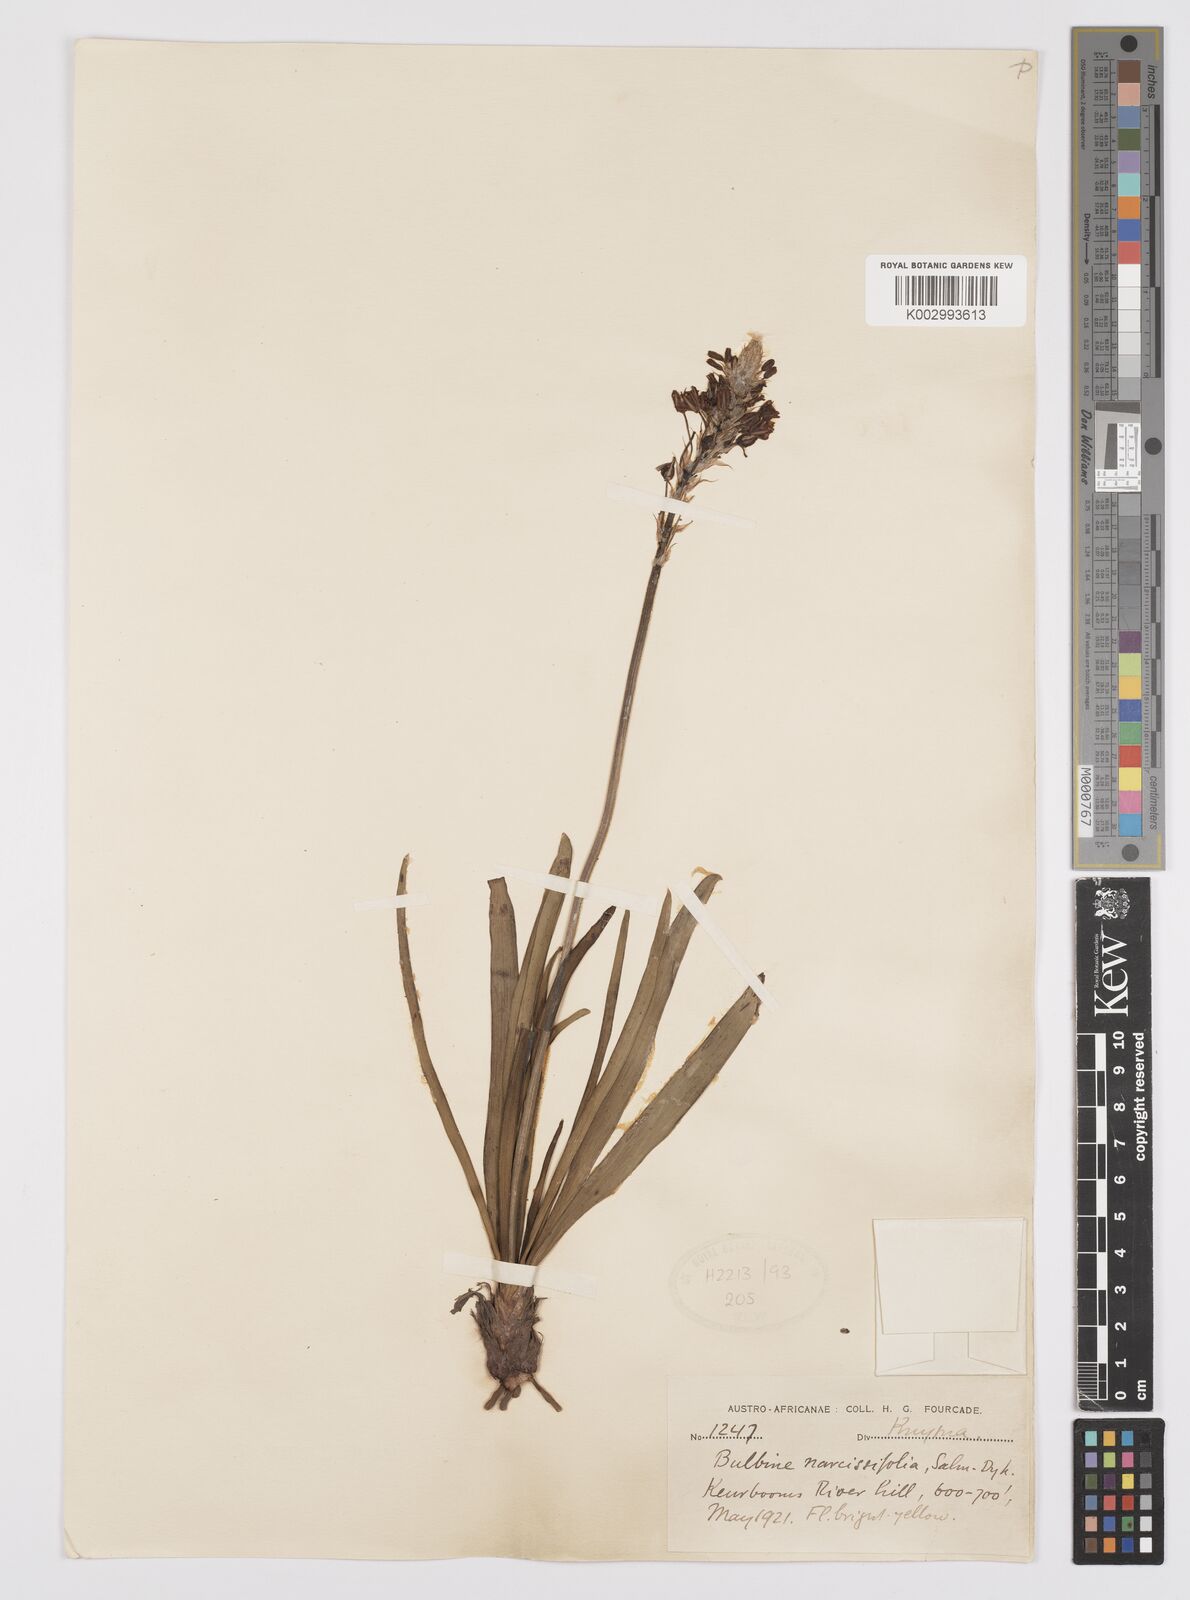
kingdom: Plantae
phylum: Tracheophyta
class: Liliopsida
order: Asparagales
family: Asphodelaceae
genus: Bulbine
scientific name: Bulbine narcissifolia
